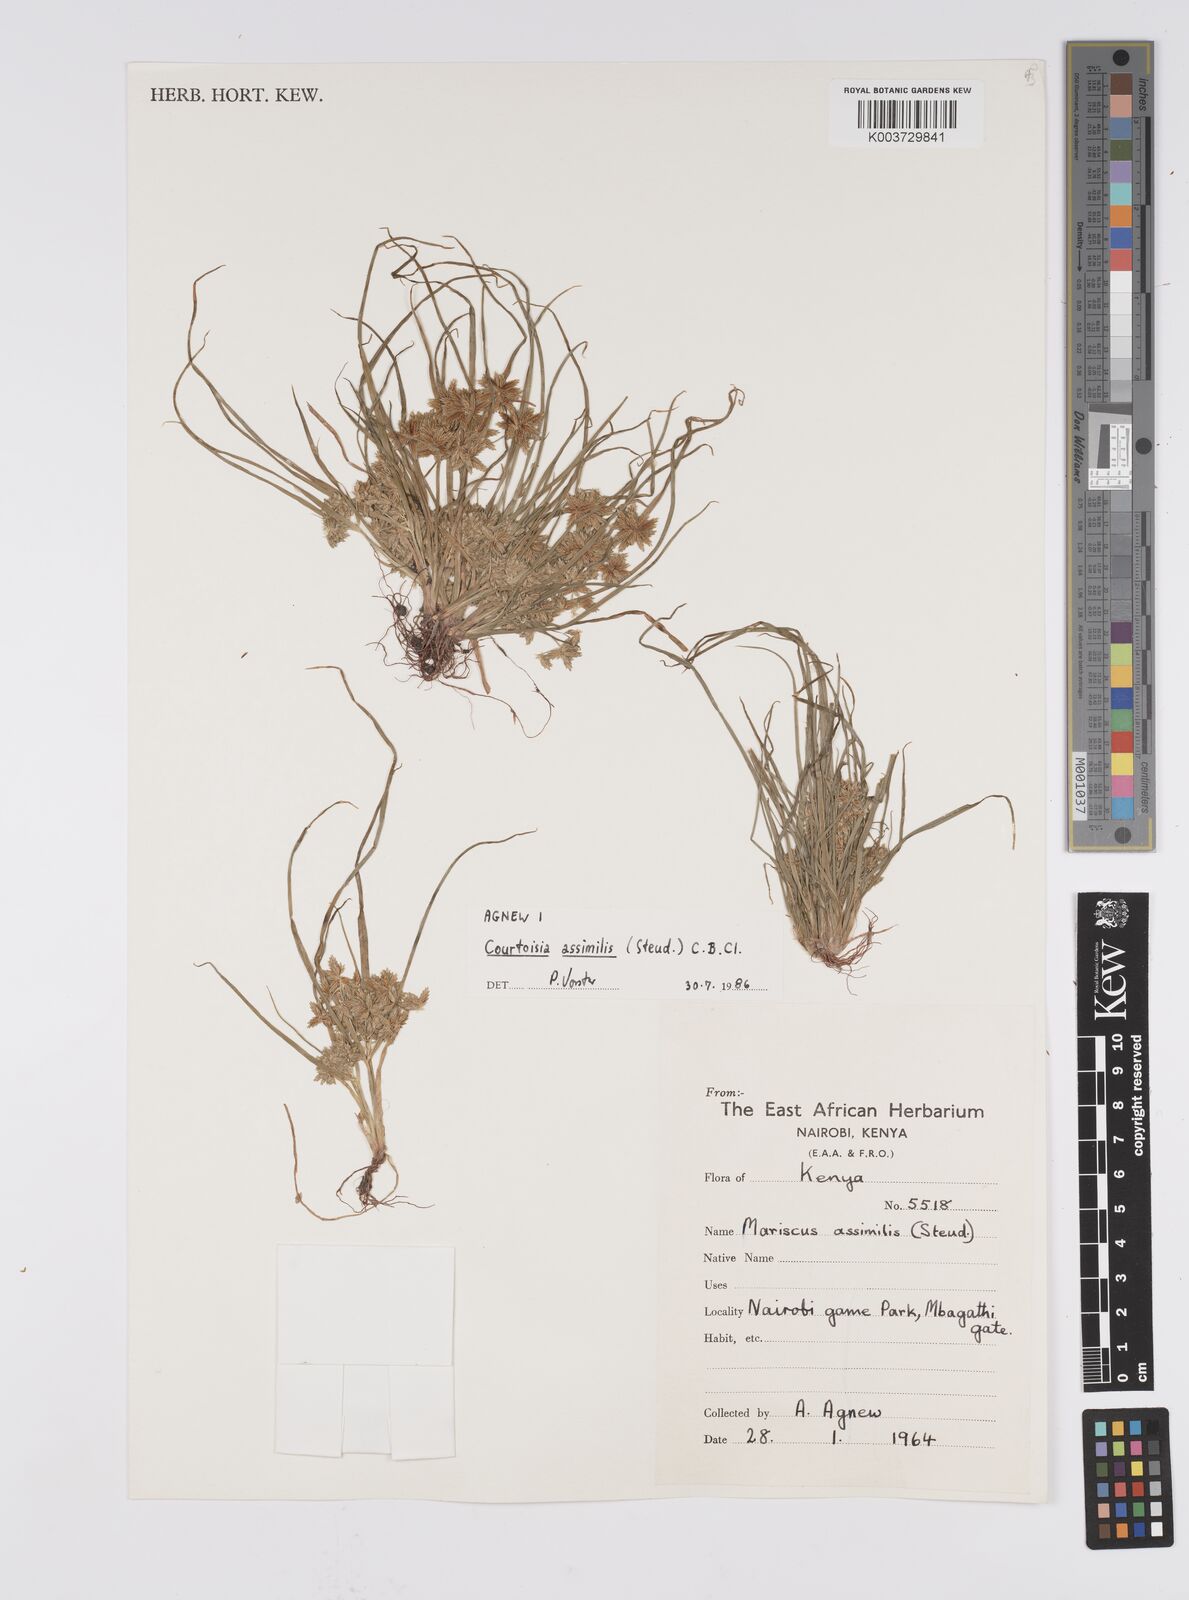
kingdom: Plantae
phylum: Tracheophyta
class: Liliopsida
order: Poales
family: Cyperaceae
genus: Cyperus
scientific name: Cyperus assimilis
